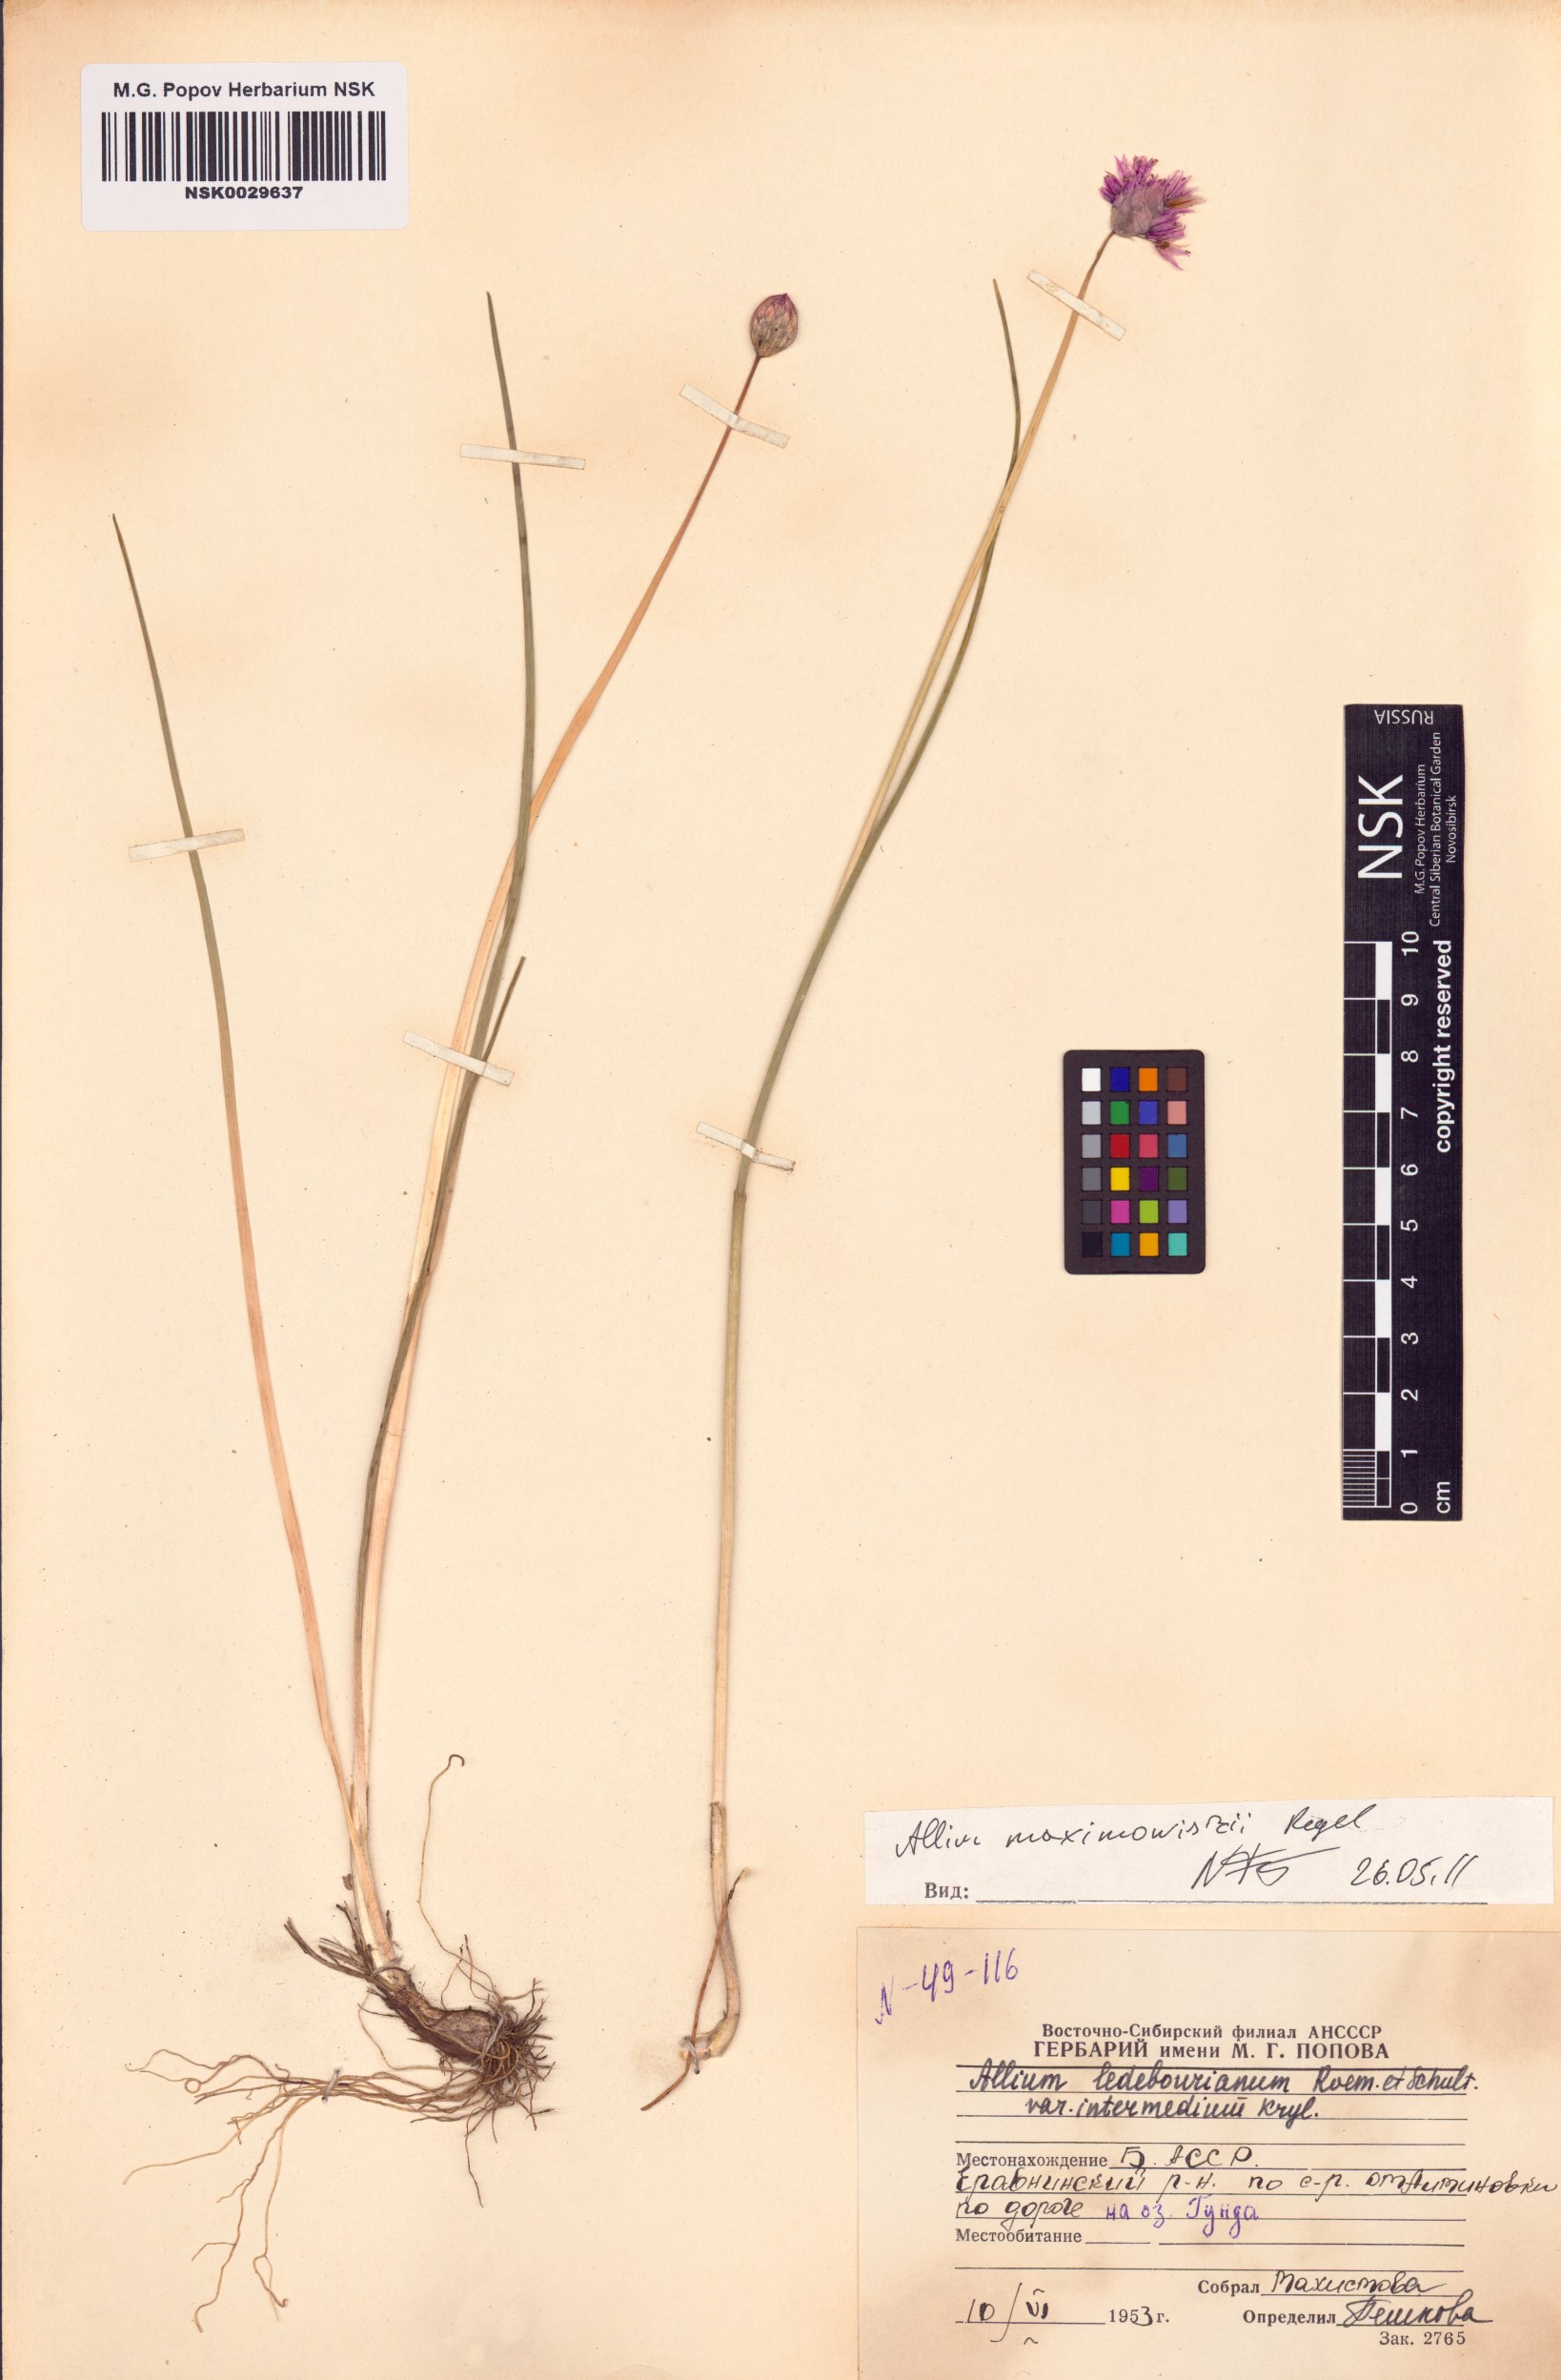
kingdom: Plantae
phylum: Tracheophyta
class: Liliopsida
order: Asparagales
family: Amaryllidaceae
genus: Allium
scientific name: Allium maximowiczii
